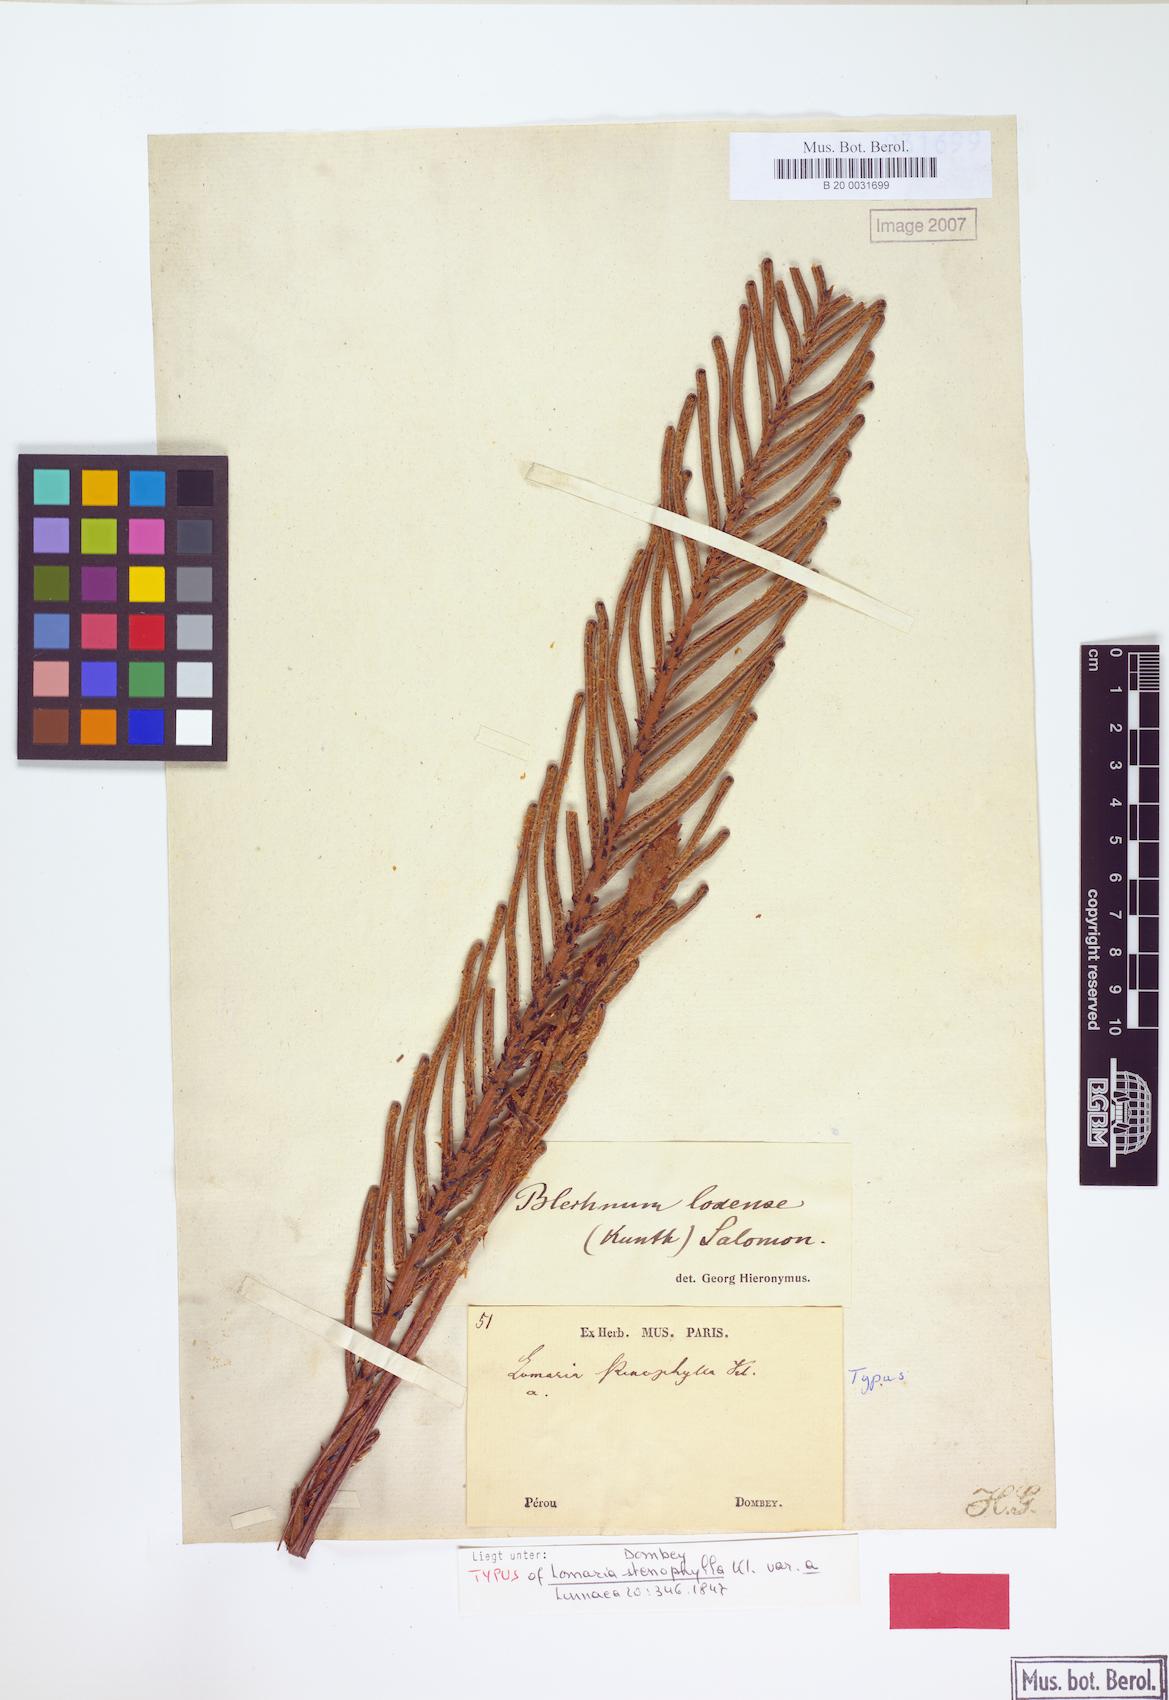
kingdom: Plantae
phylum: Tracheophyta
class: Polypodiopsida
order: Polypodiales
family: Blechnaceae
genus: Parablechnum
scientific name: Parablechnum loxense
